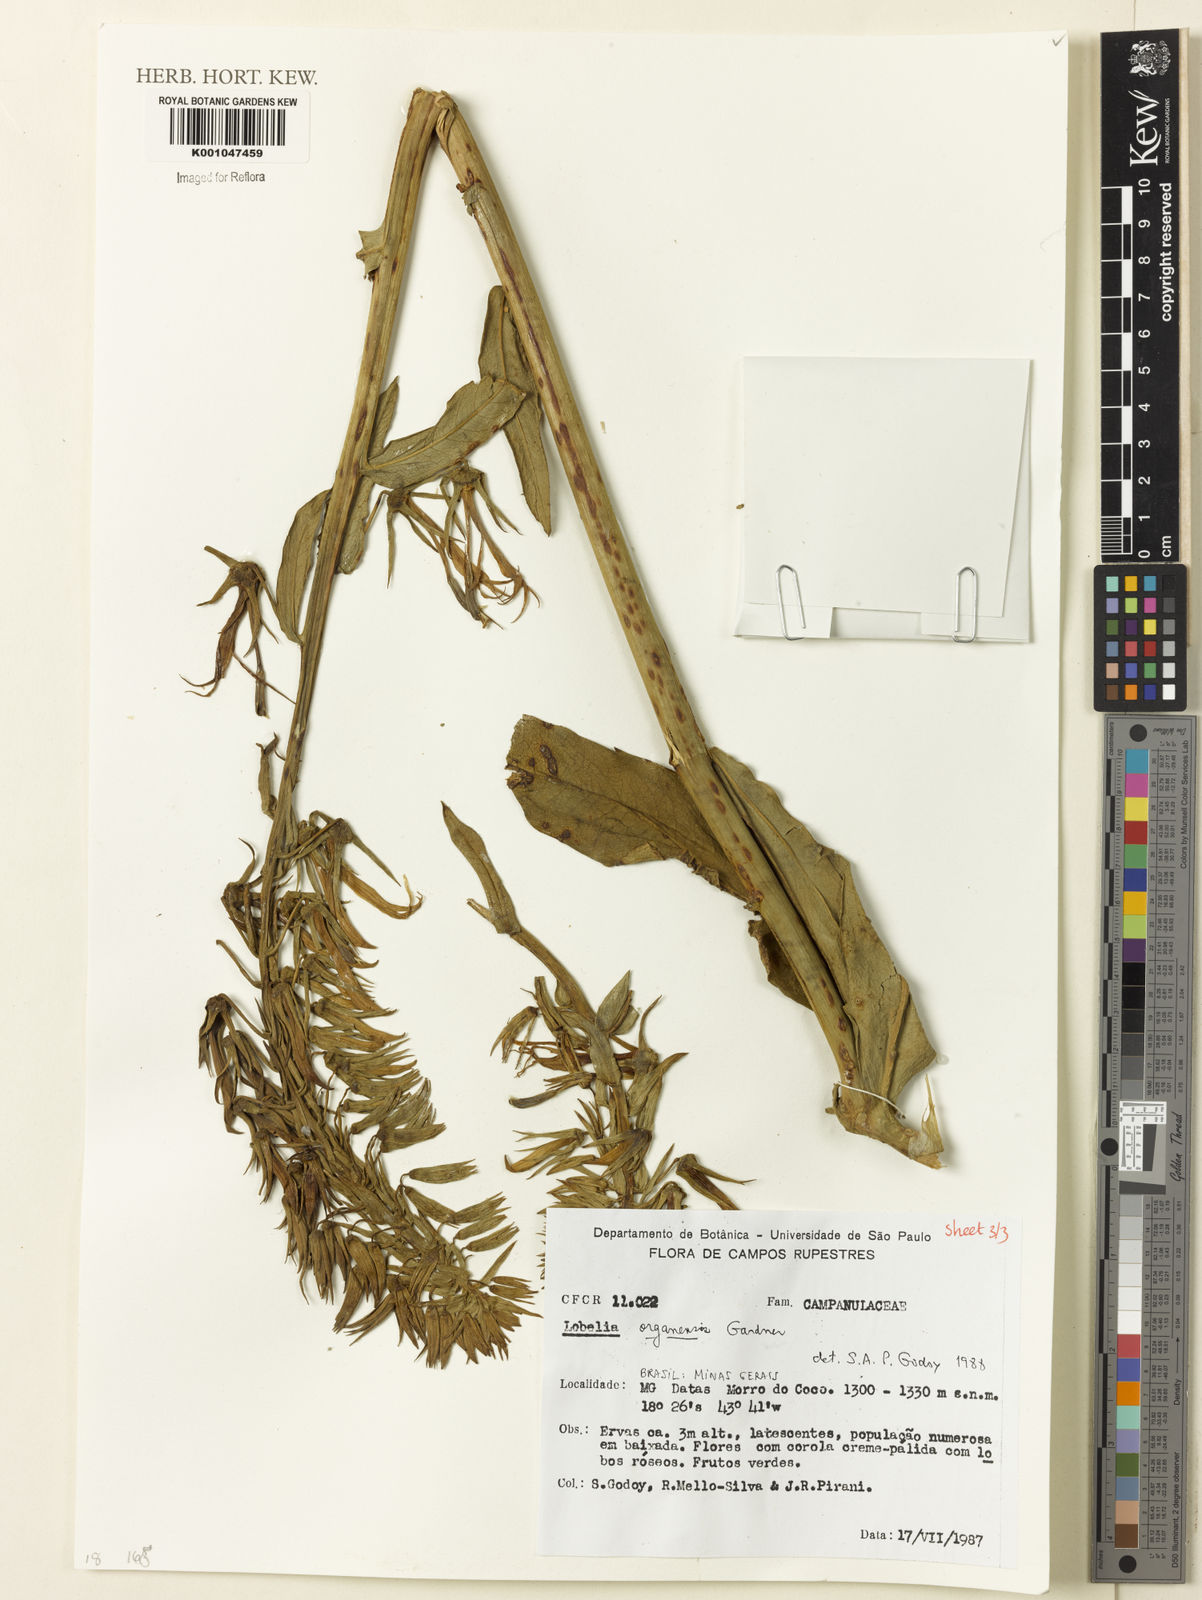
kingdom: Plantae
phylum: Tracheophyta
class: Magnoliopsida
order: Asterales
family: Campanulaceae
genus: Lobelia
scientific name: Lobelia organensis
